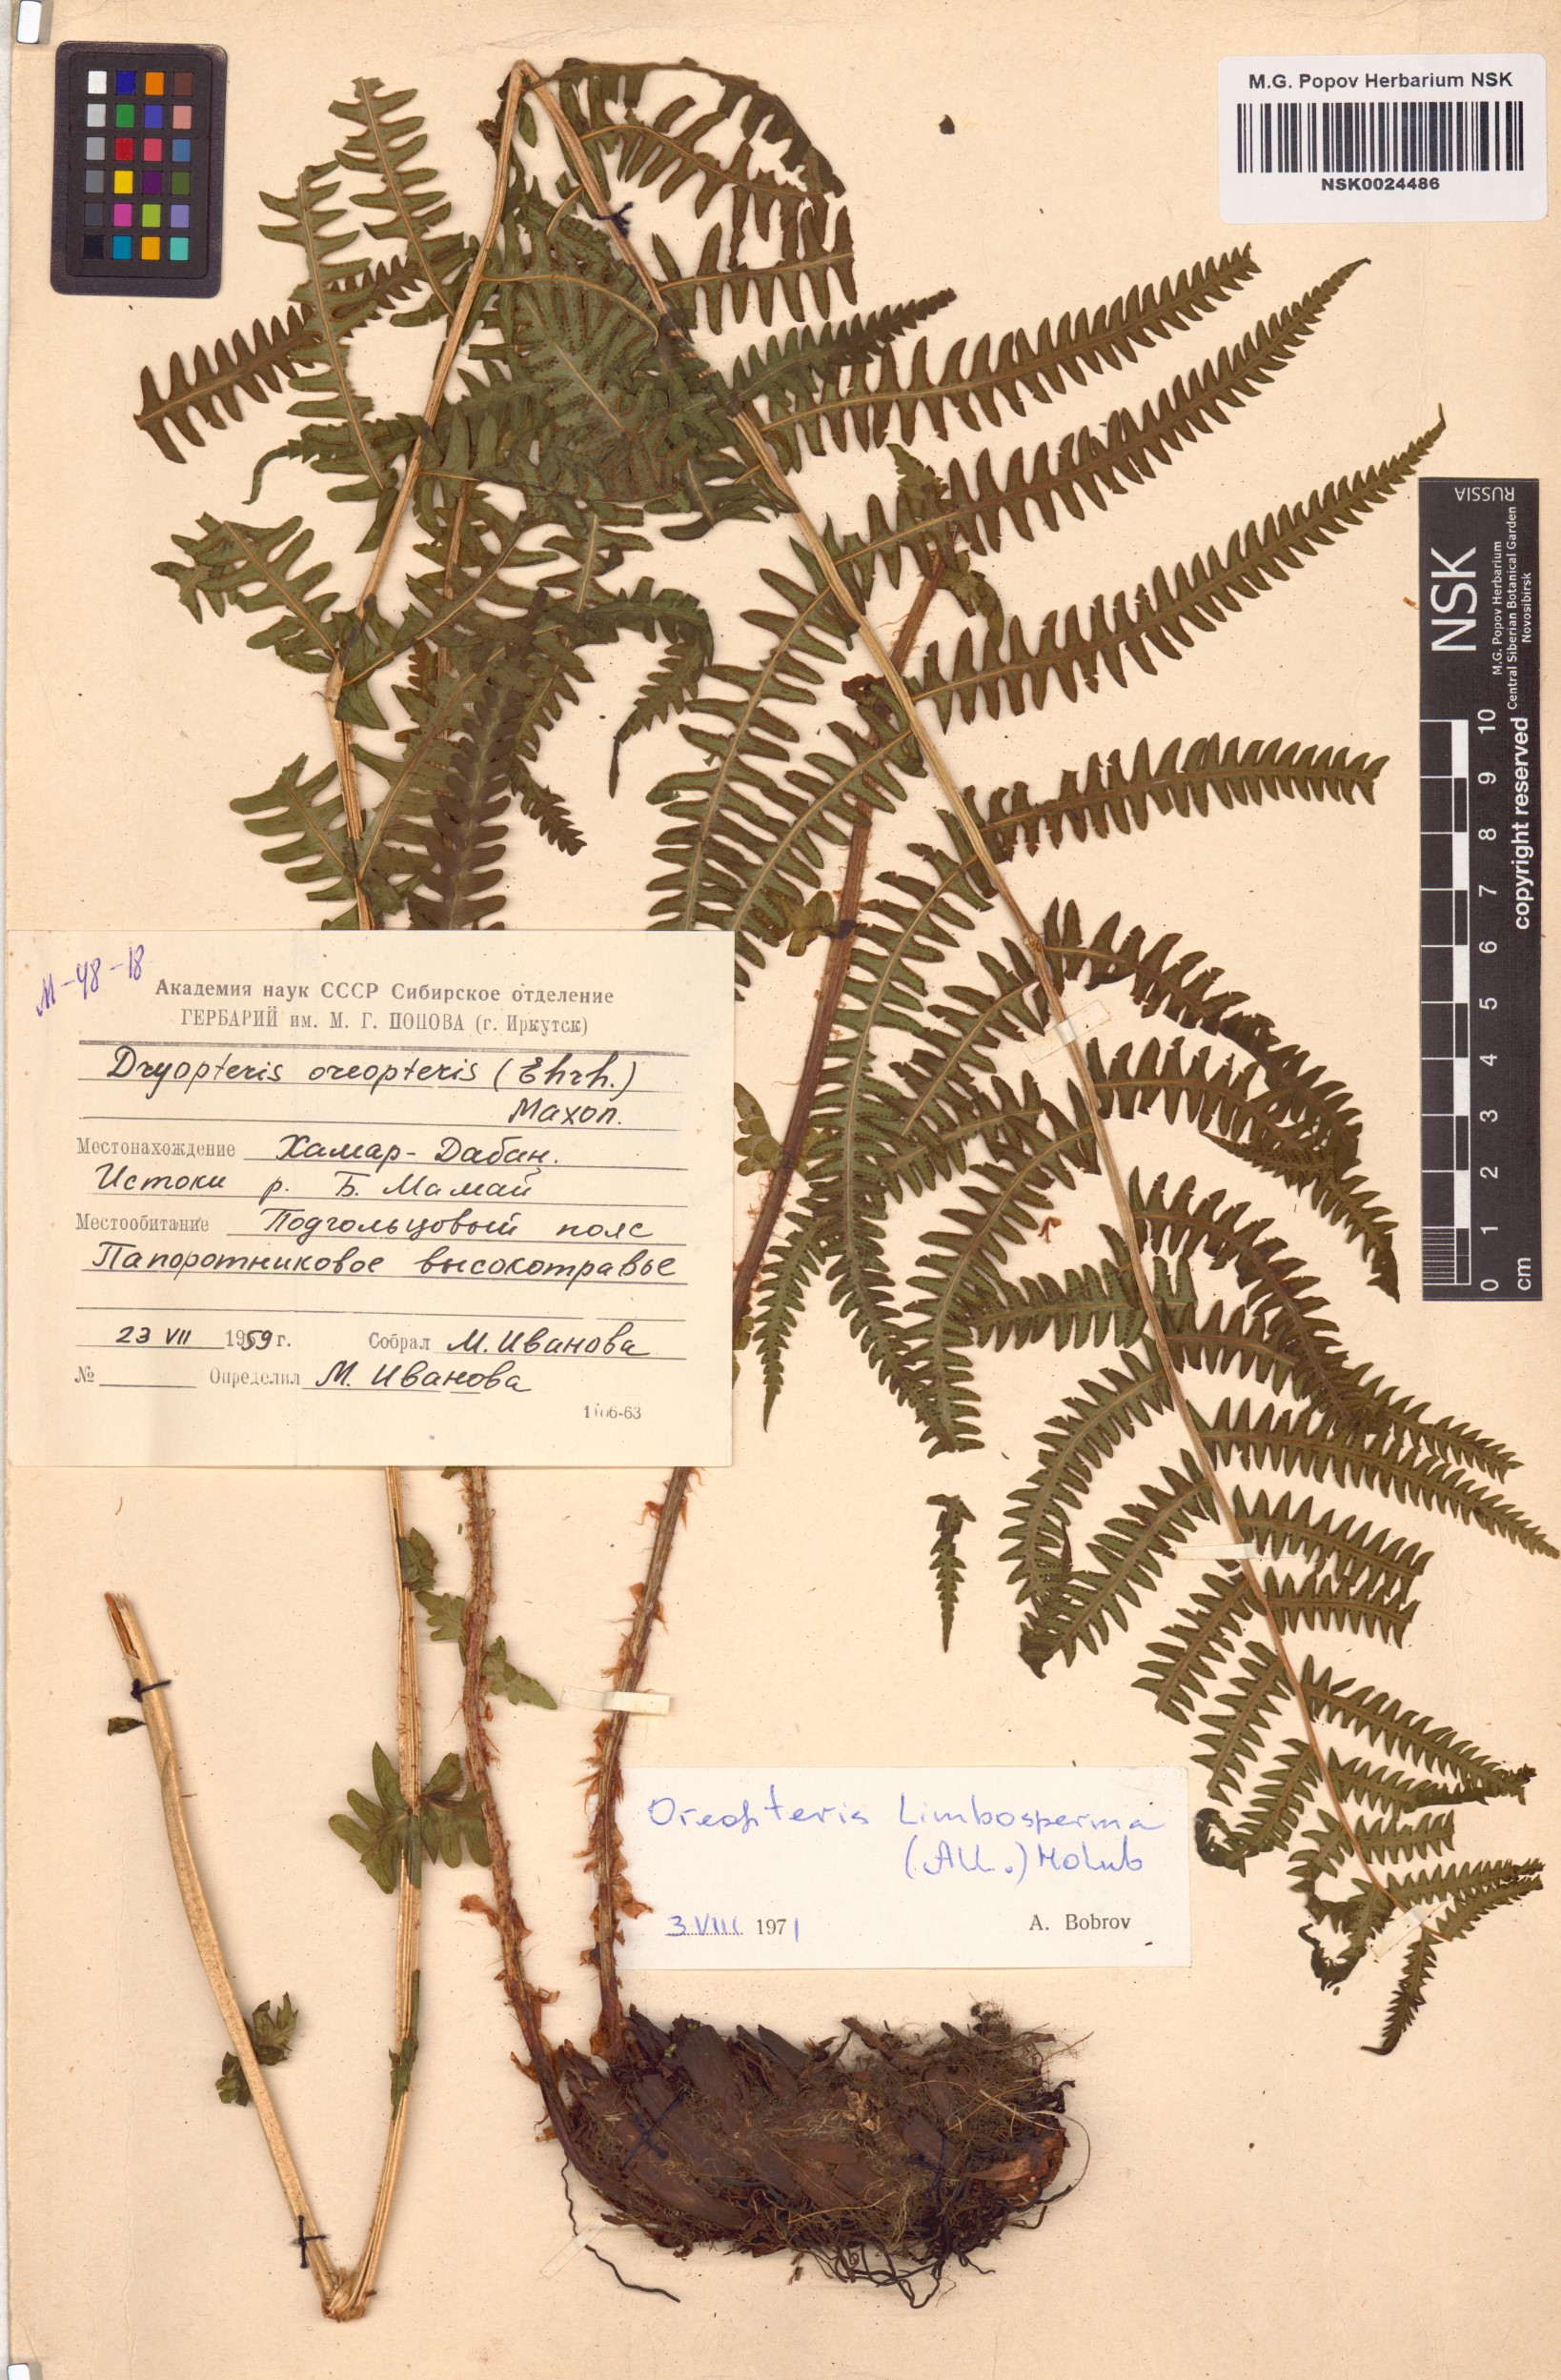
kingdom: Plantae
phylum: Tracheophyta
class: Polypodiopsida
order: Polypodiales
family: Thelypteridaceae
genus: Oreopteris
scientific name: Oreopteris limbosperma
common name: Lemon-scented fern
